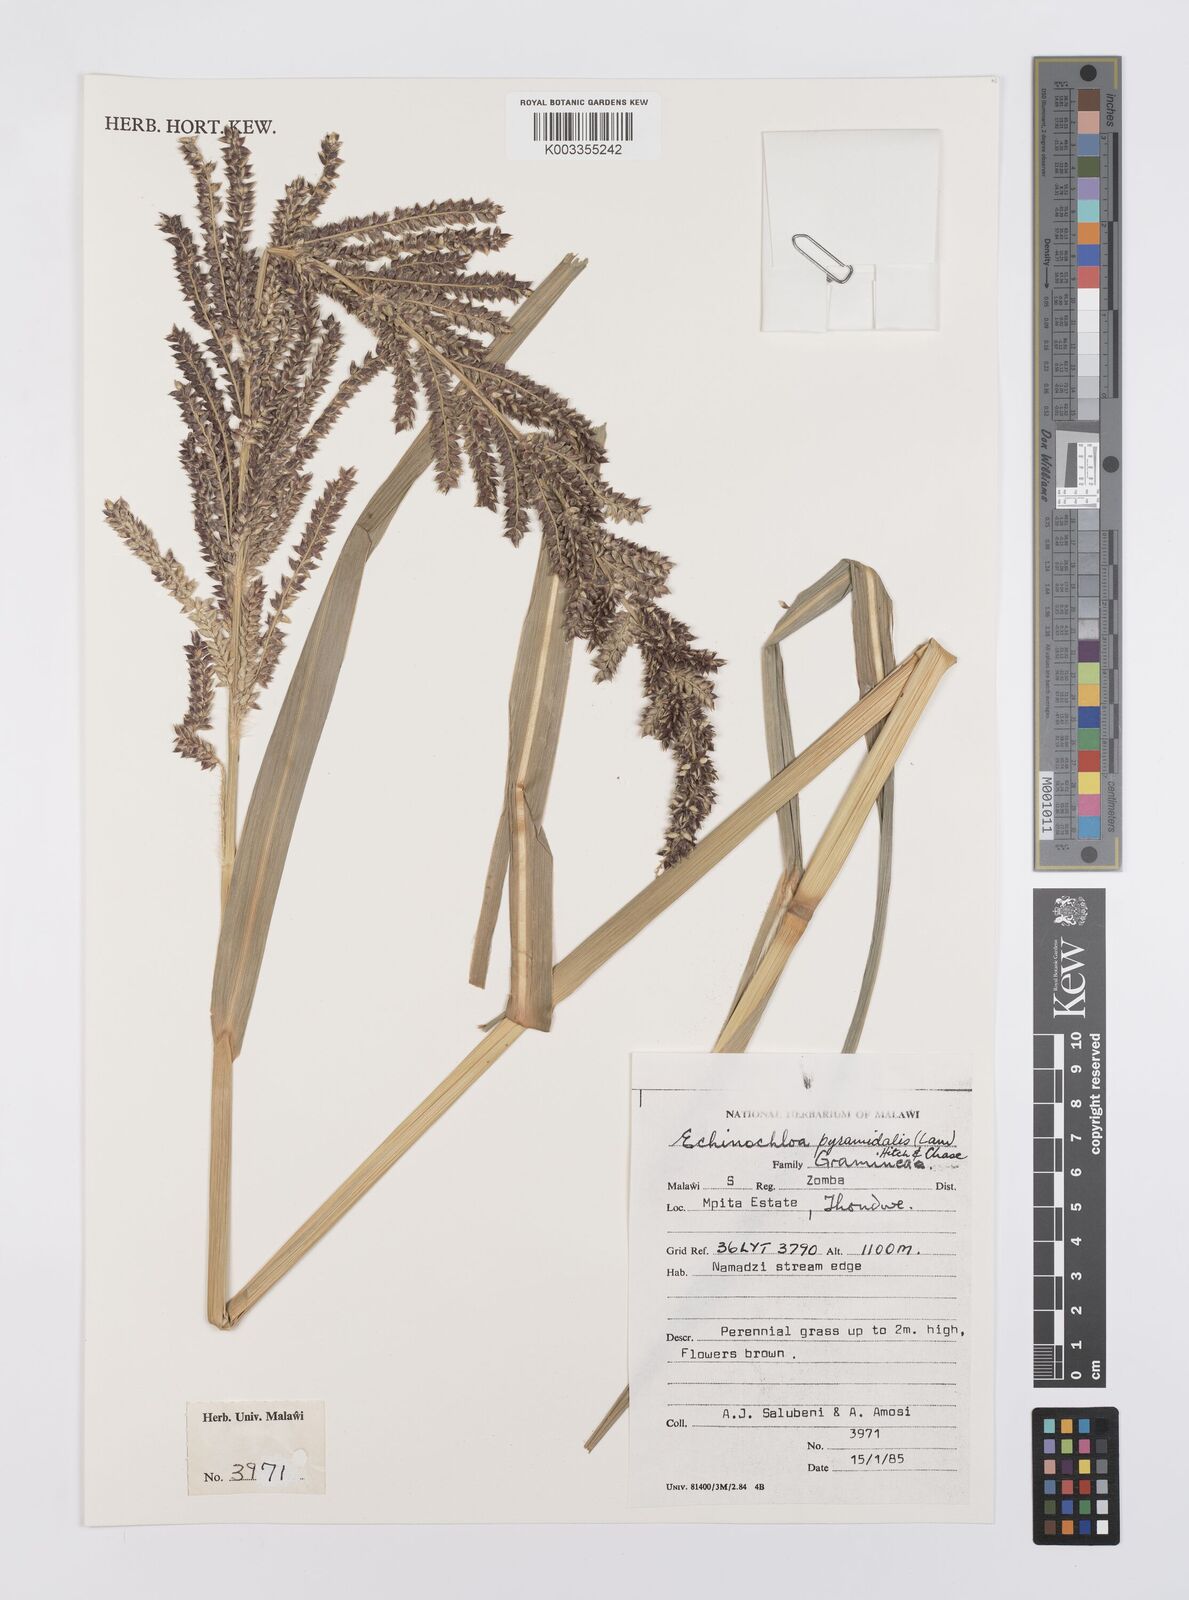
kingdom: Plantae
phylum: Tracheophyta
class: Liliopsida
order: Poales
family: Poaceae
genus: Echinochloa
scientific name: Echinochloa pyramidalis
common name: Antelope grass
